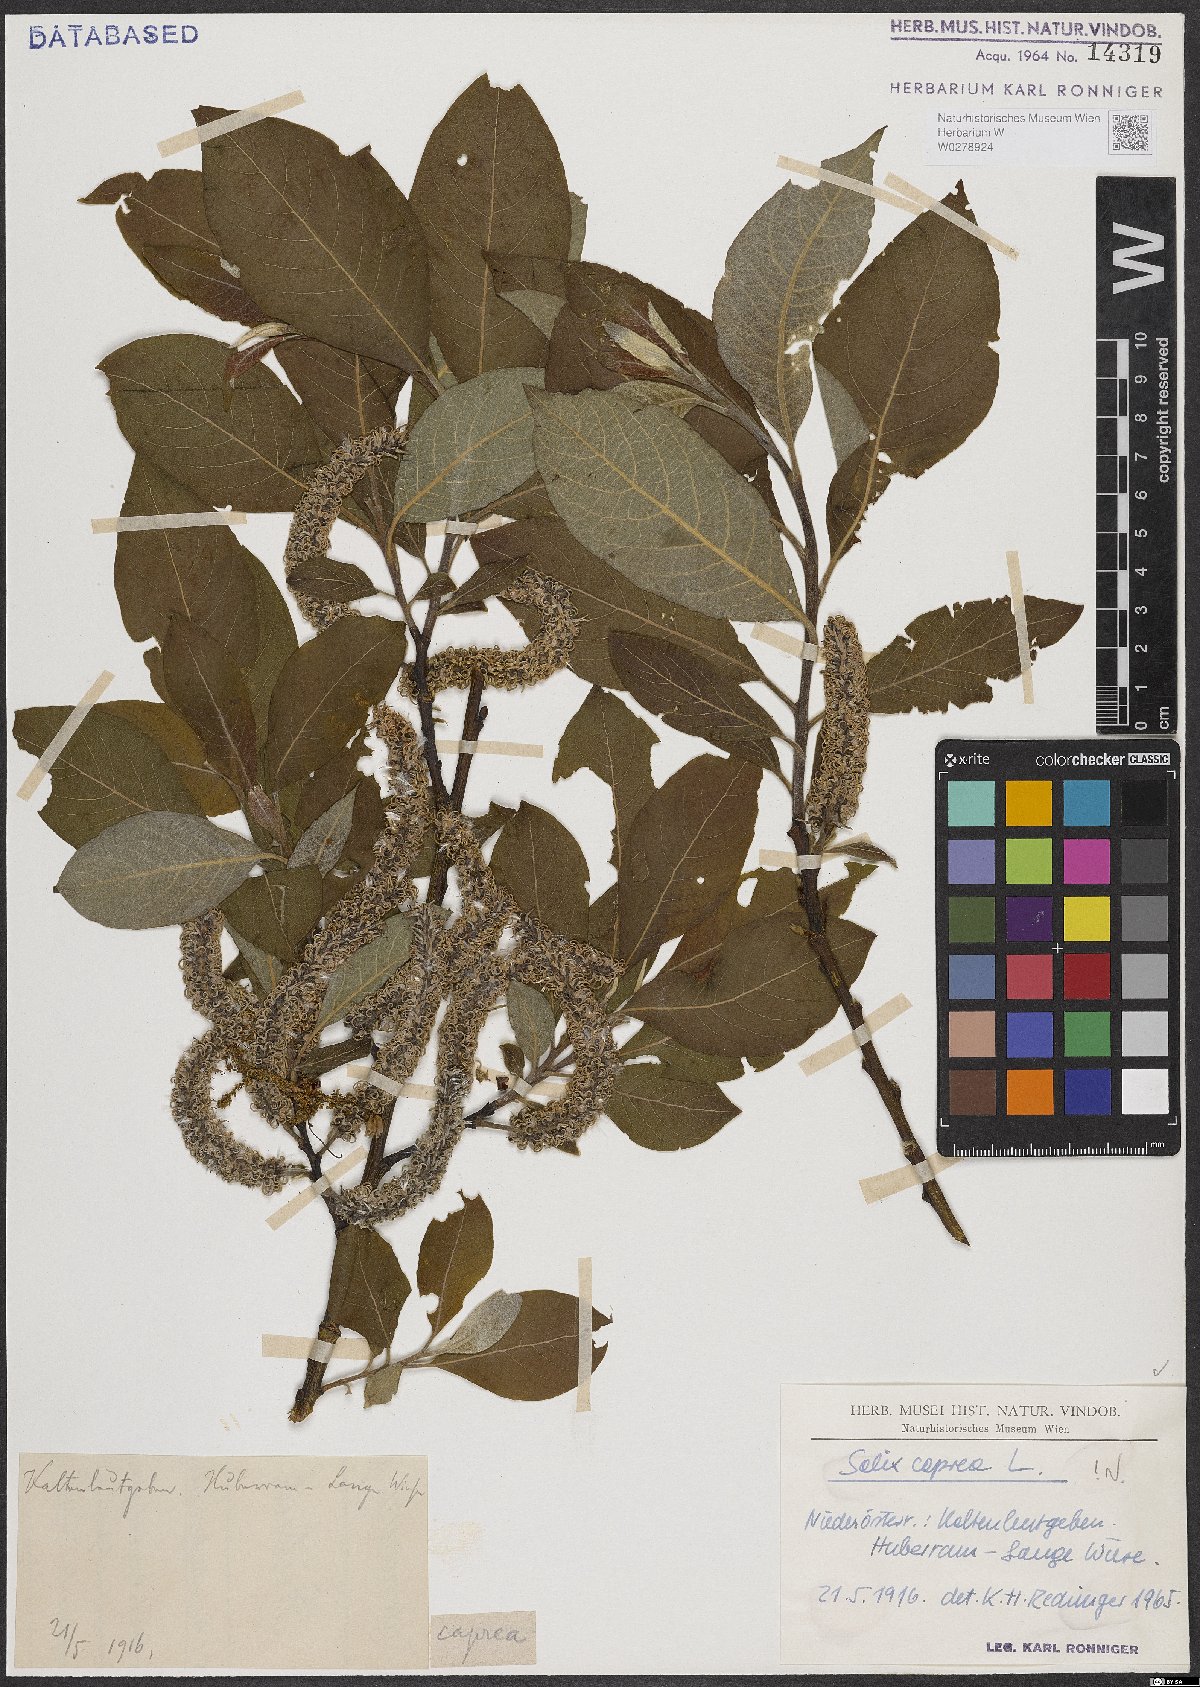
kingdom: Plantae
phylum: Tracheophyta
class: Magnoliopsida
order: Malpighiales
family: Salicaceae
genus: Salix
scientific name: Salix caprea
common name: Goat willow
